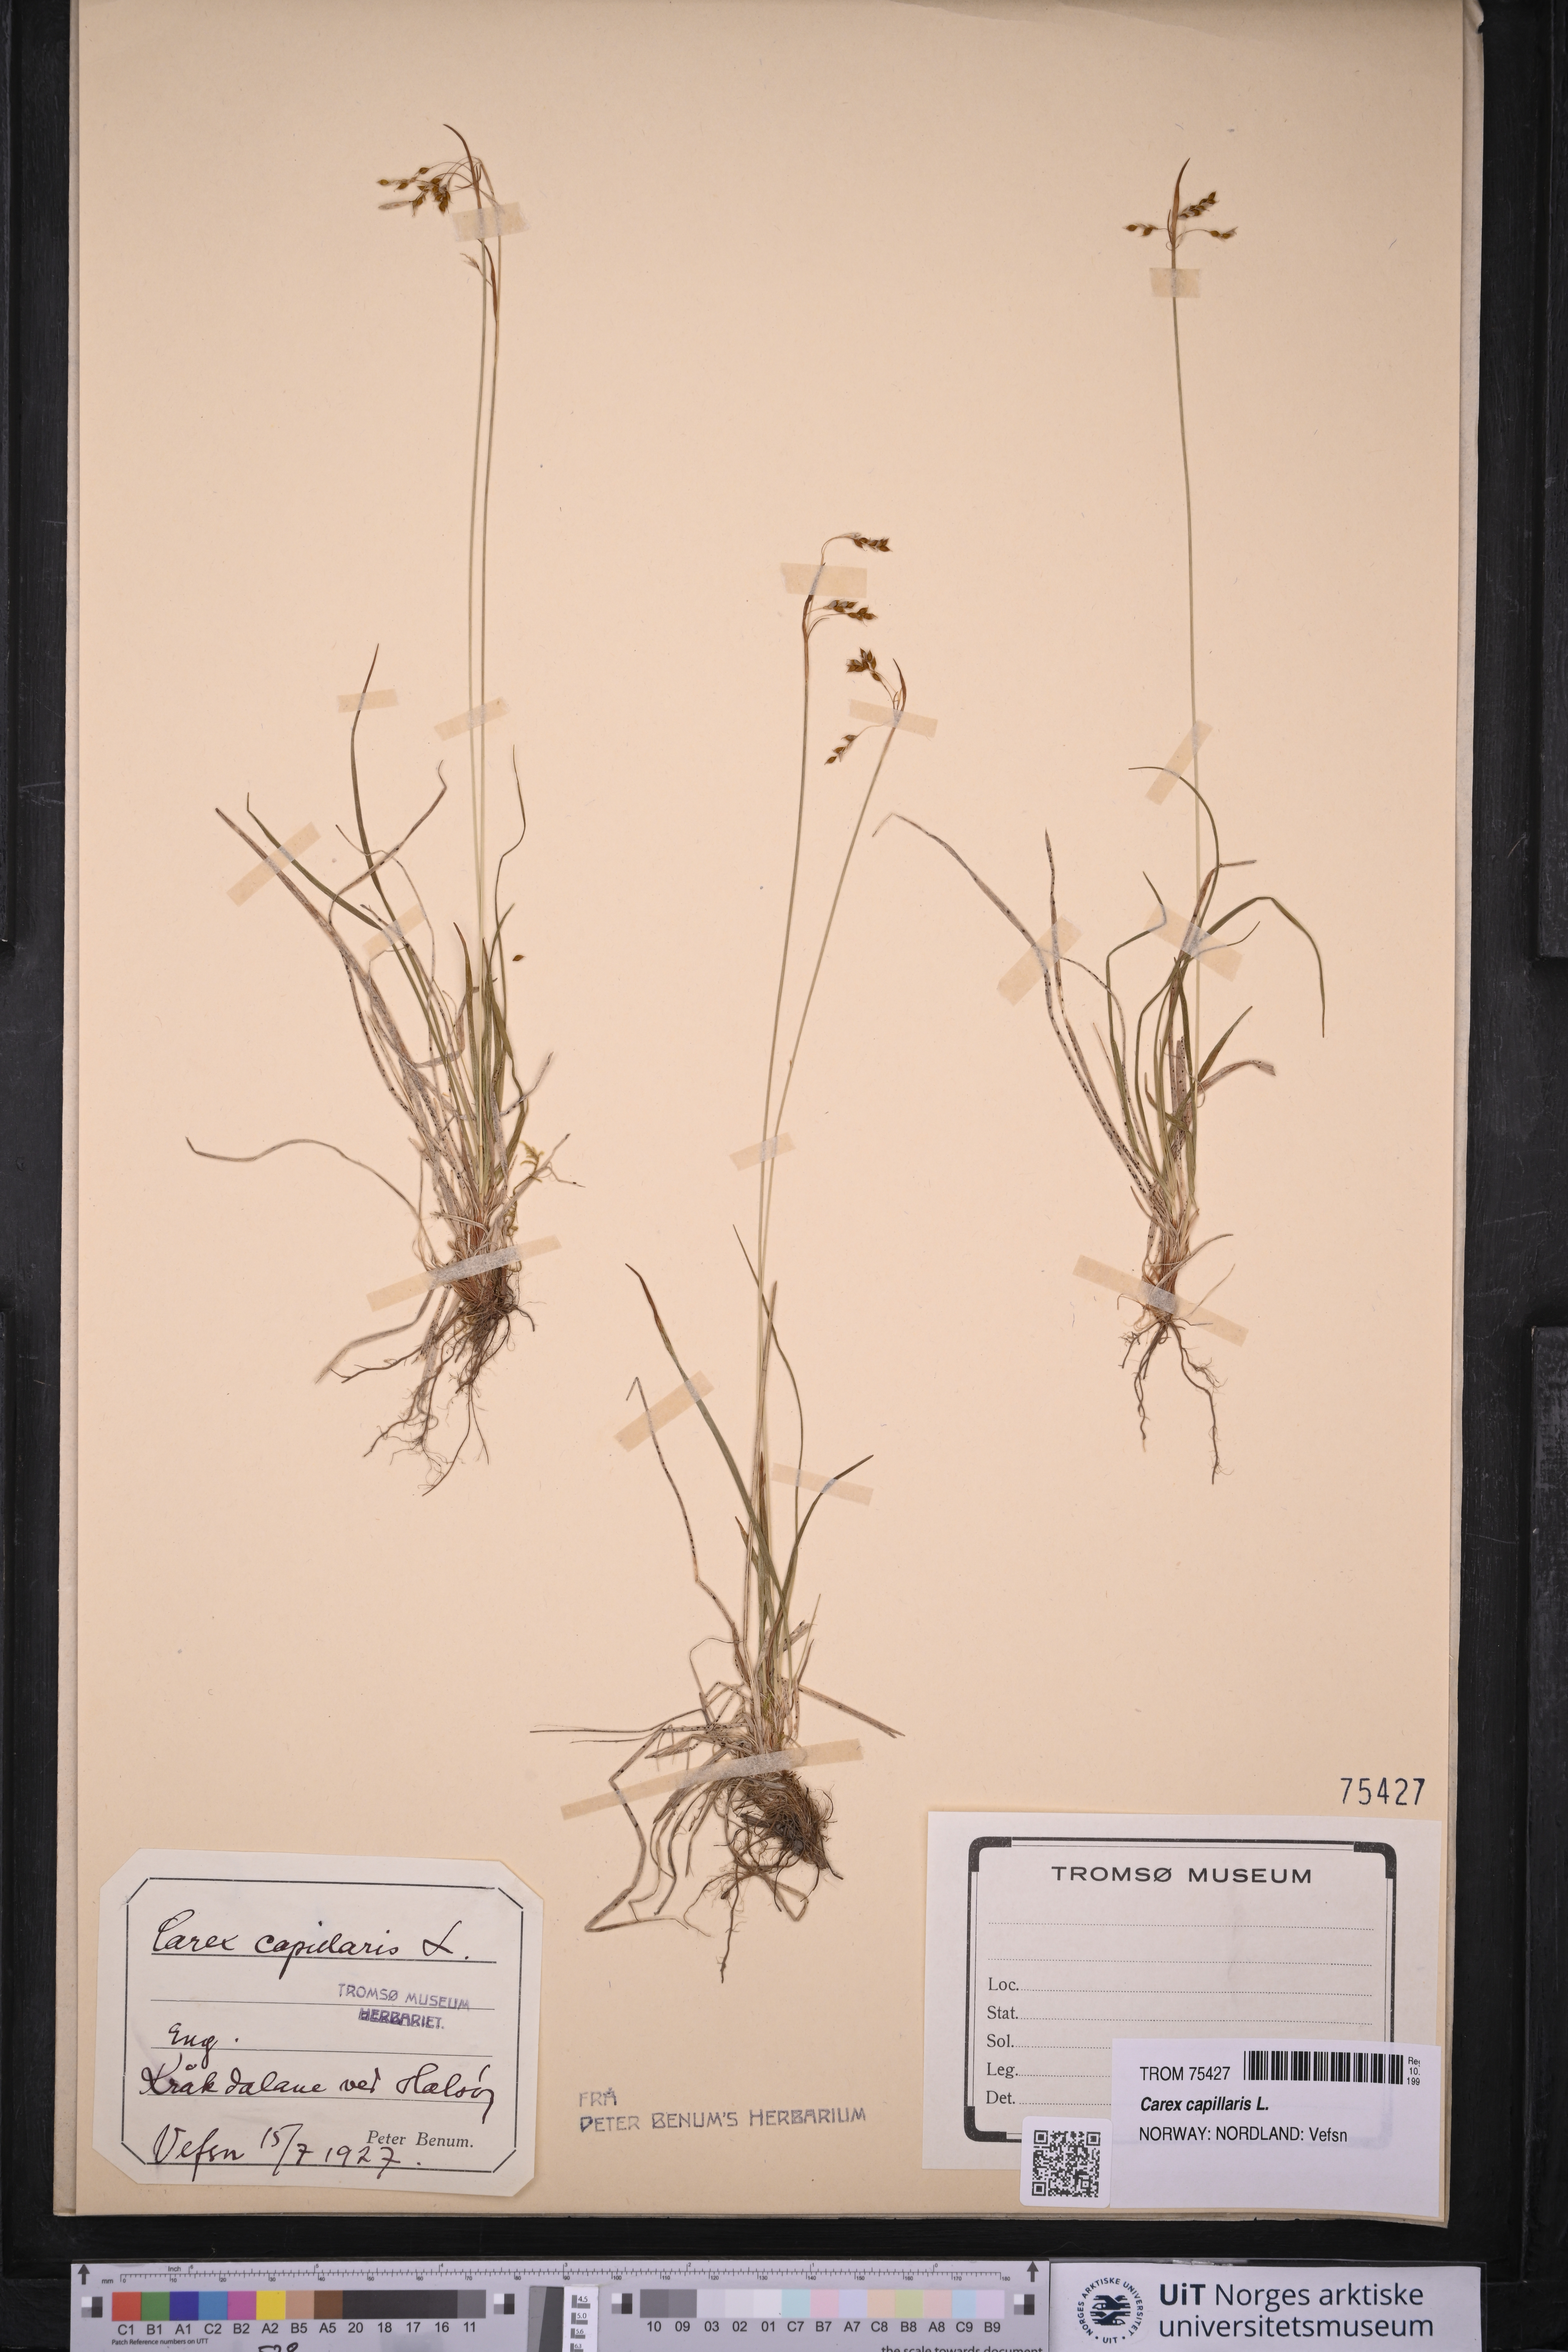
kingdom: Plantae
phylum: Tracheophyta
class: Liliopsida
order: Poales
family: Cyperaceae
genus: Carex
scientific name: Carex capillaris
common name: Hair sedge
